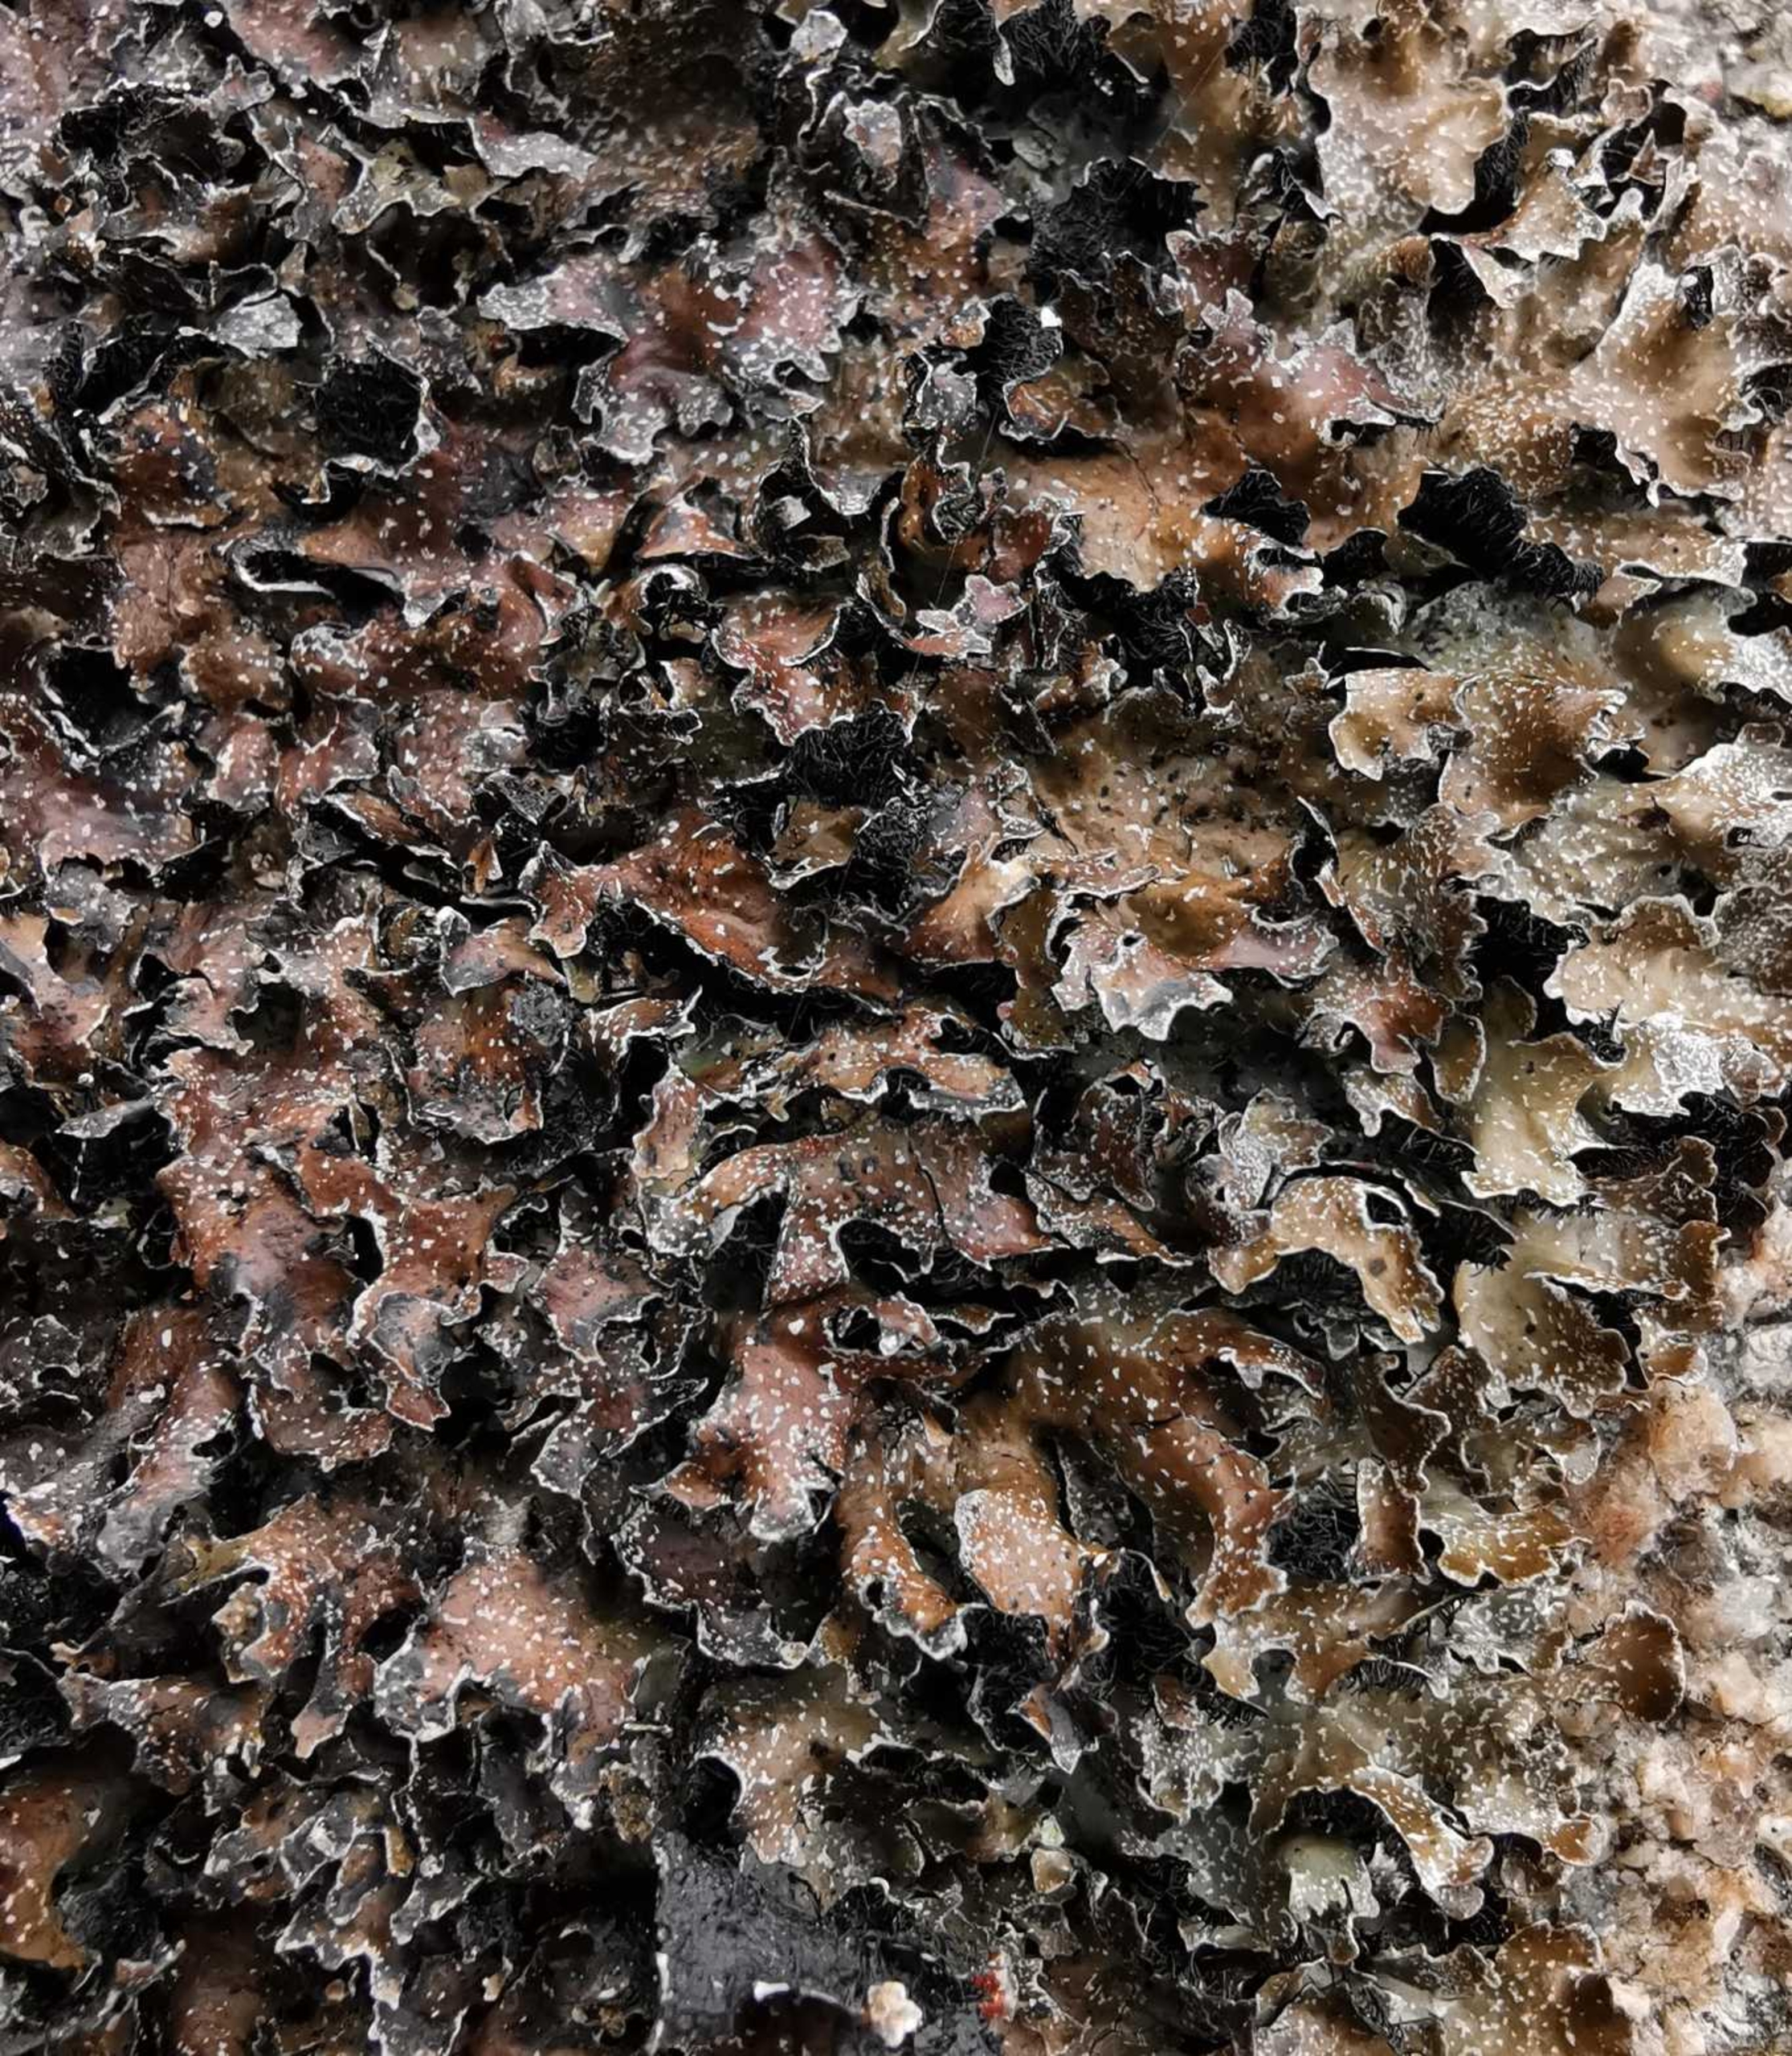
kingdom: Fungi
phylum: Ascomycota
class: Lecanoromycetes
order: Lecanorales
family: Parmeliaceae
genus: Parmelia
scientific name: Parmelia omphalodes
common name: Bronze-skållav
